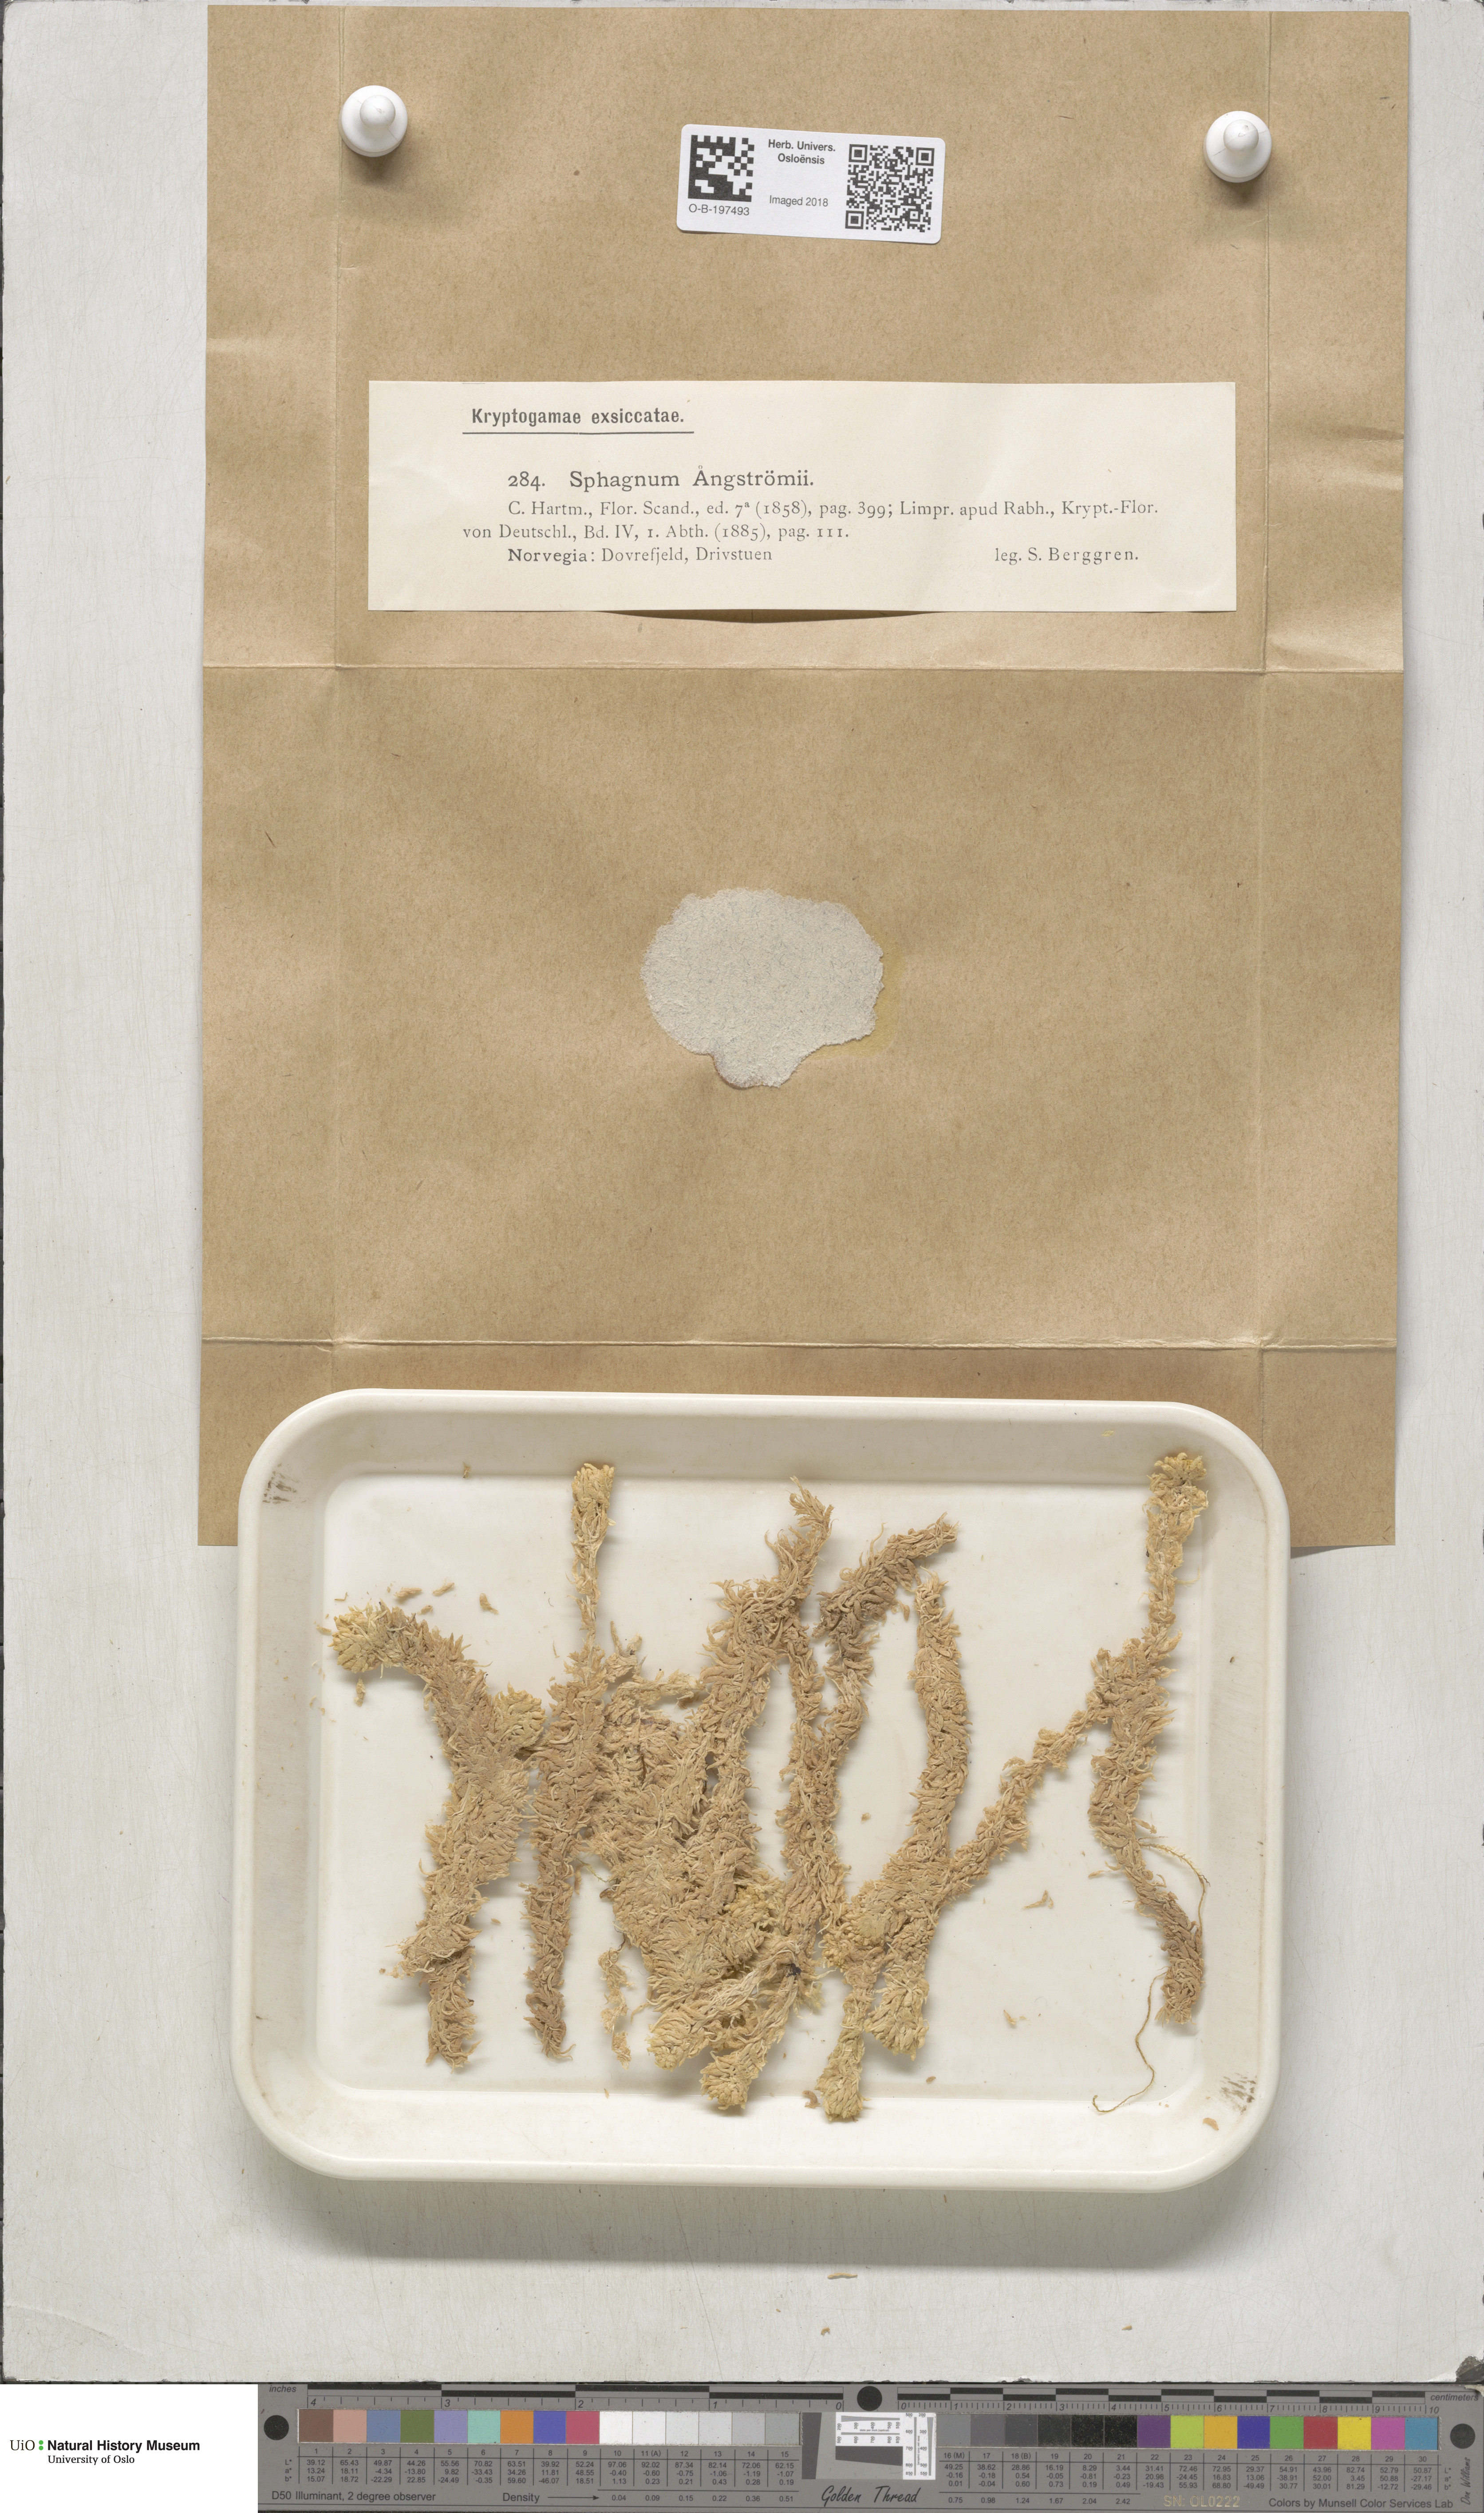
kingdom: Plantae
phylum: Bryophyta
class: Sphagnopsida
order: Sphagnales
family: Sphagnaceae
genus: Sphagnum
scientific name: Sphagnum aongstroemii
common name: Aongstroem's peat moss
